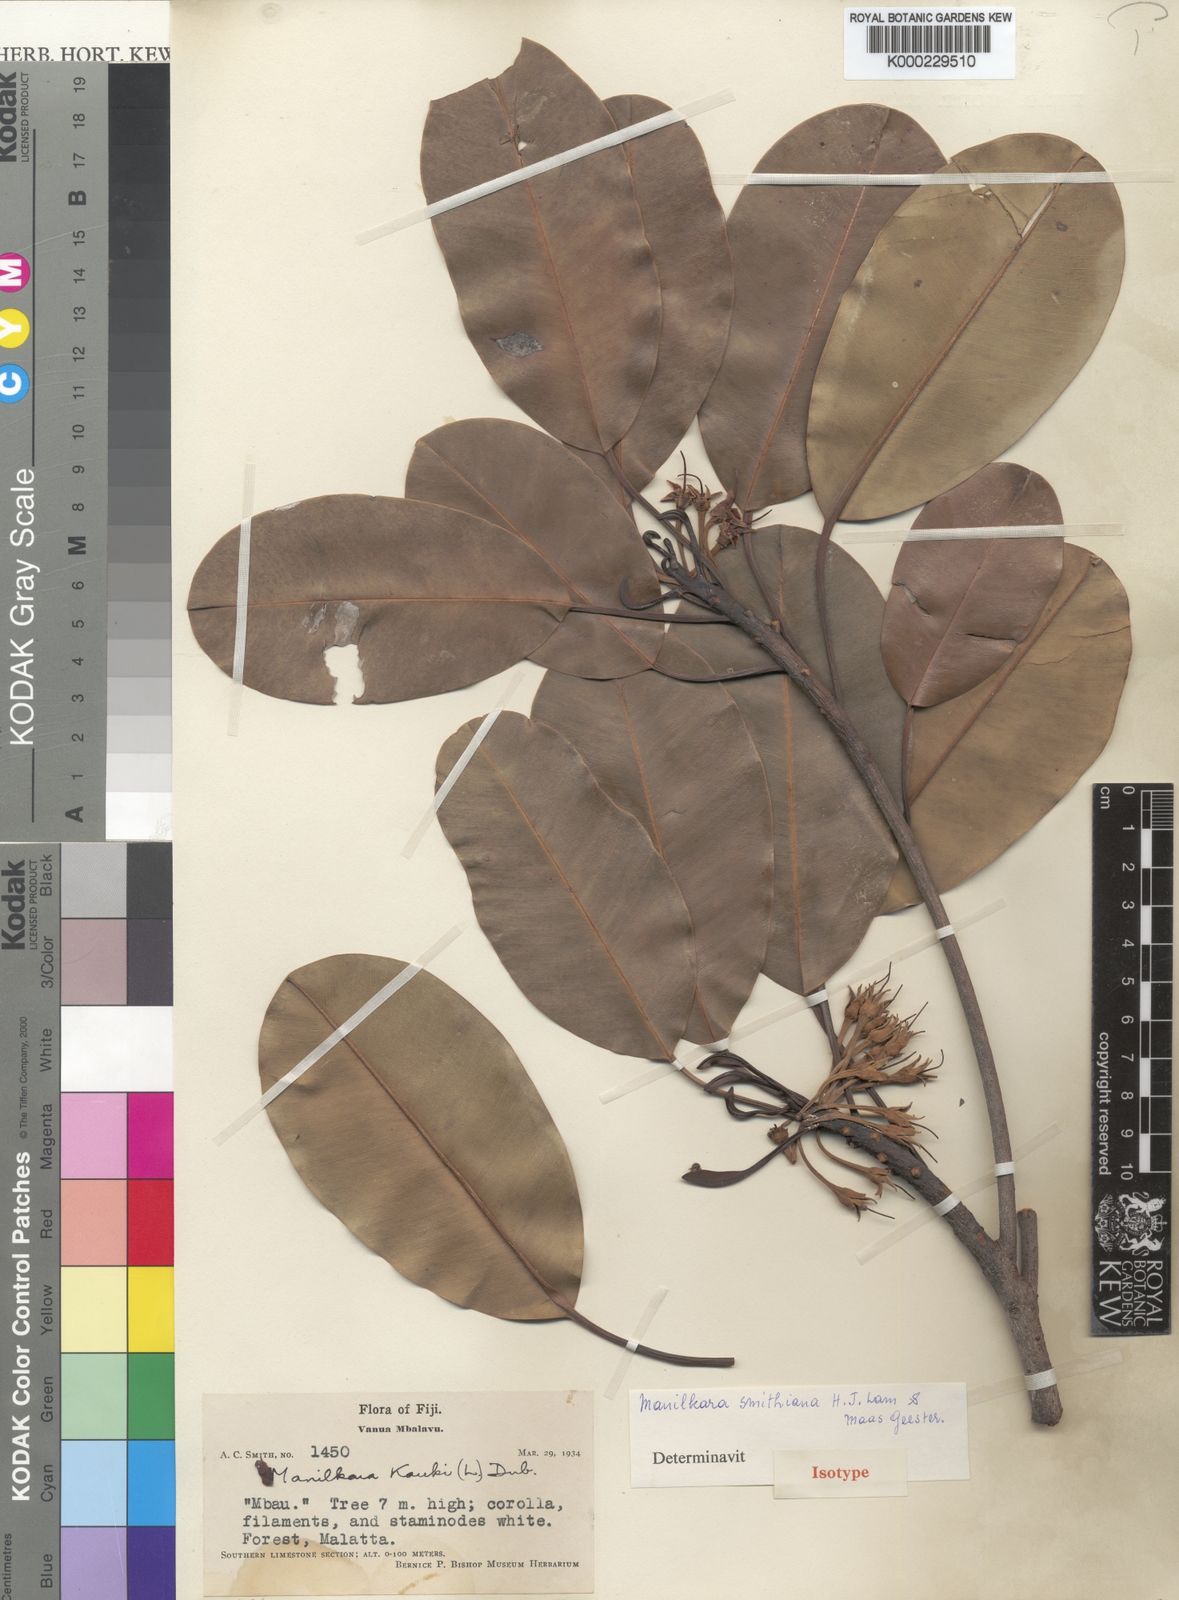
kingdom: Plantae
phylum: Tracheophyta
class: Magnoliopsida
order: Ericales
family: Sapotaceae
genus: Manilkara
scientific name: Manilkara smithiana
